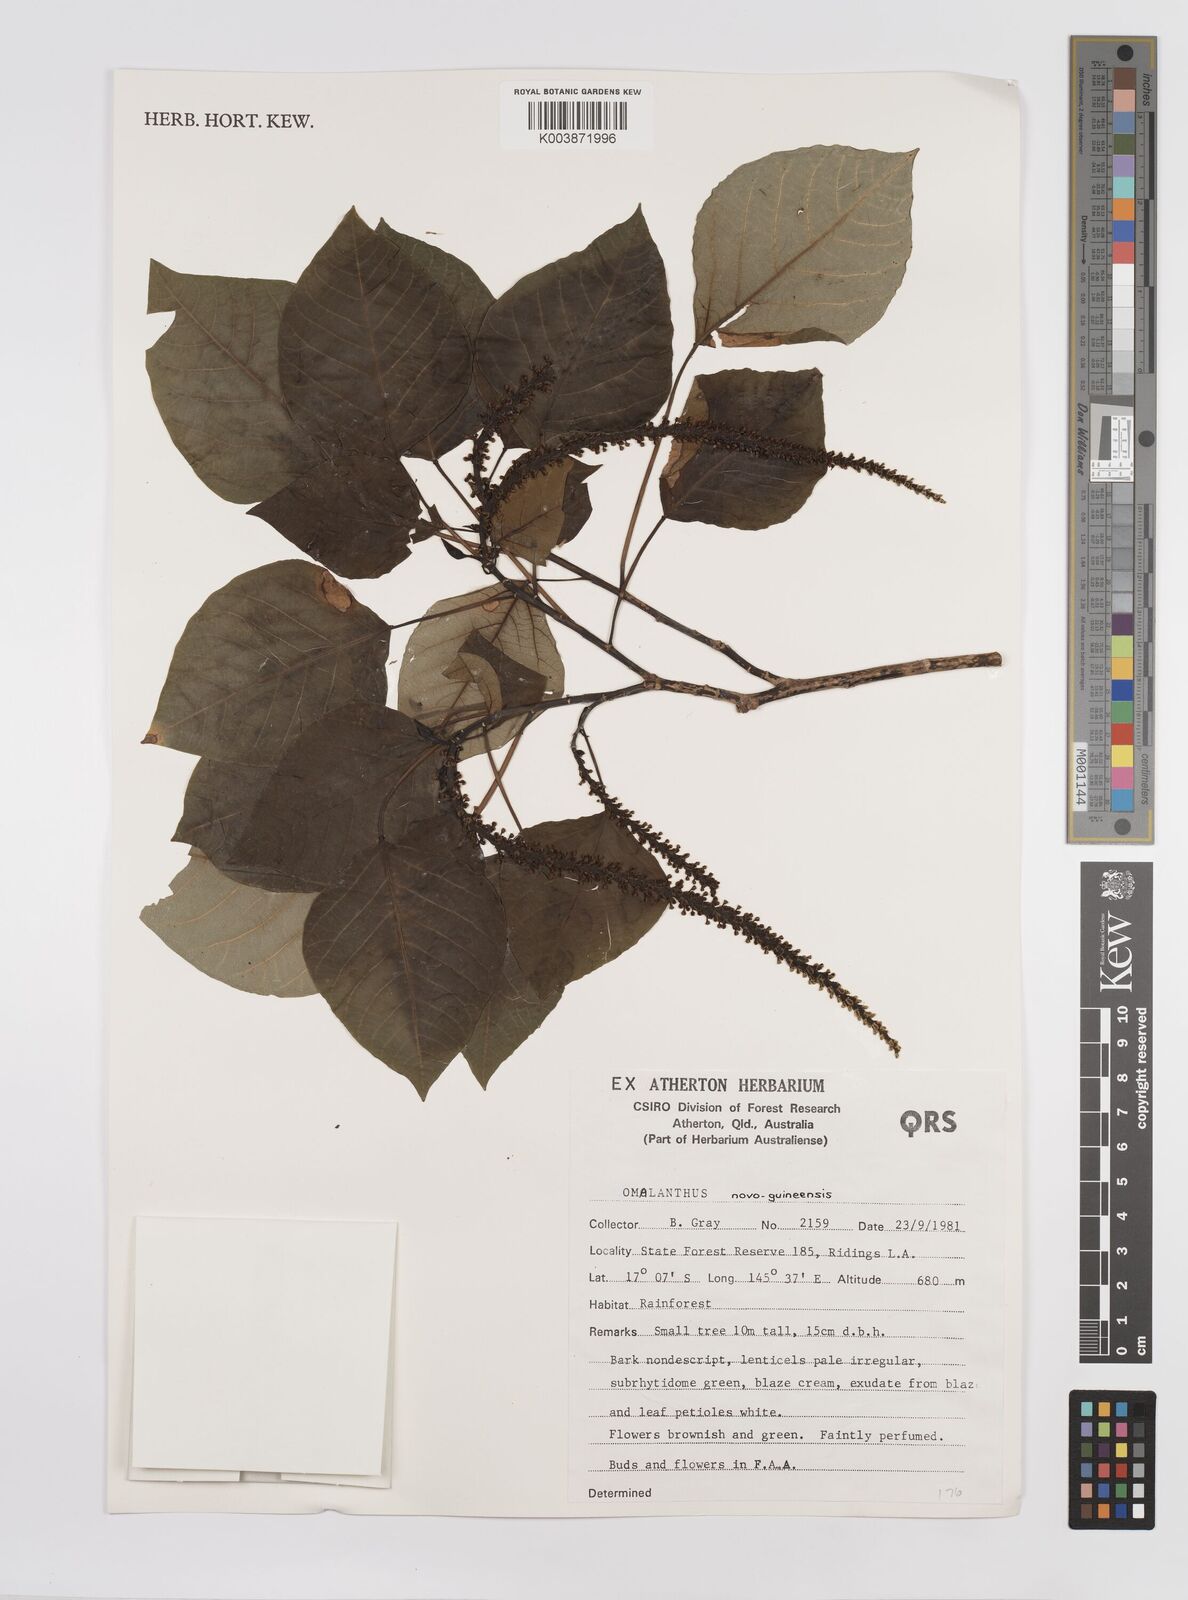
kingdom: Plantae
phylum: Tracheophyta
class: Magnoliopsida
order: Malpighiales
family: Euphorbiaceae
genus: Homalanthus
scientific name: Homalanthus novoguineensis
